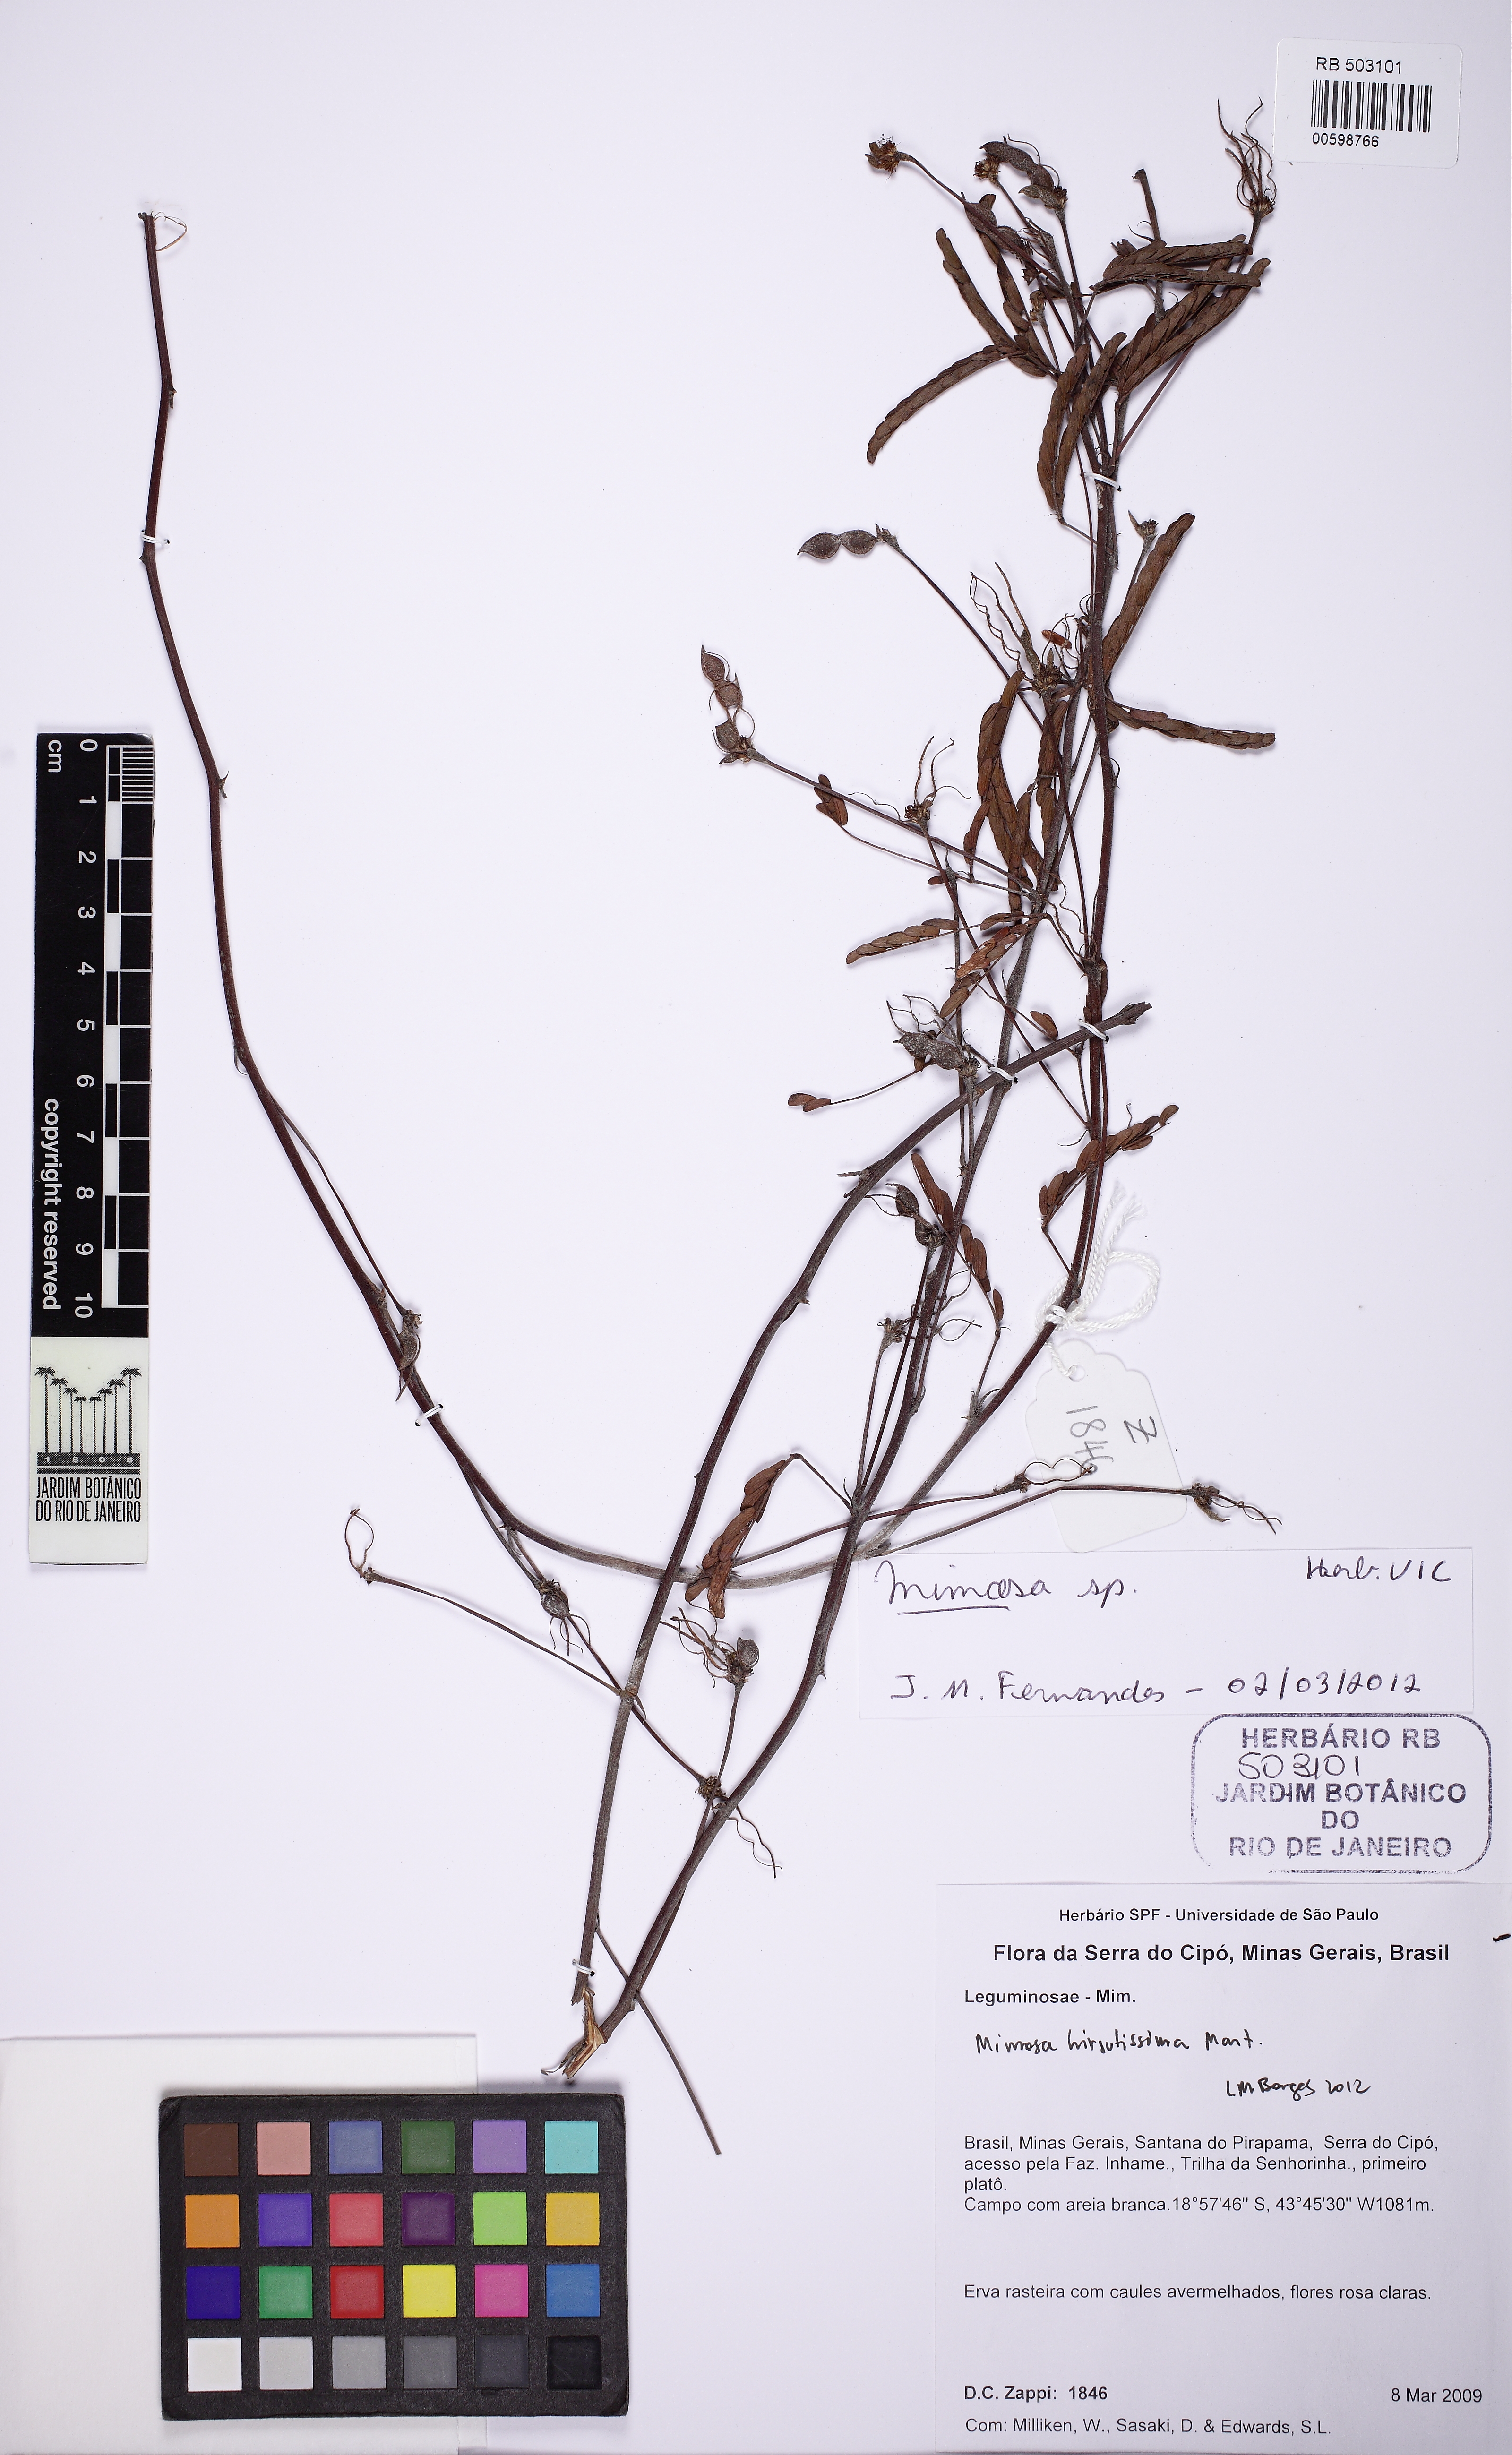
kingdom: Plantae
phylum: Tracheophyta
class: Magnoliopsida
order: Fabales
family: Fabaceae
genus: Mimosa
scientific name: Mimosa hirsutissima
